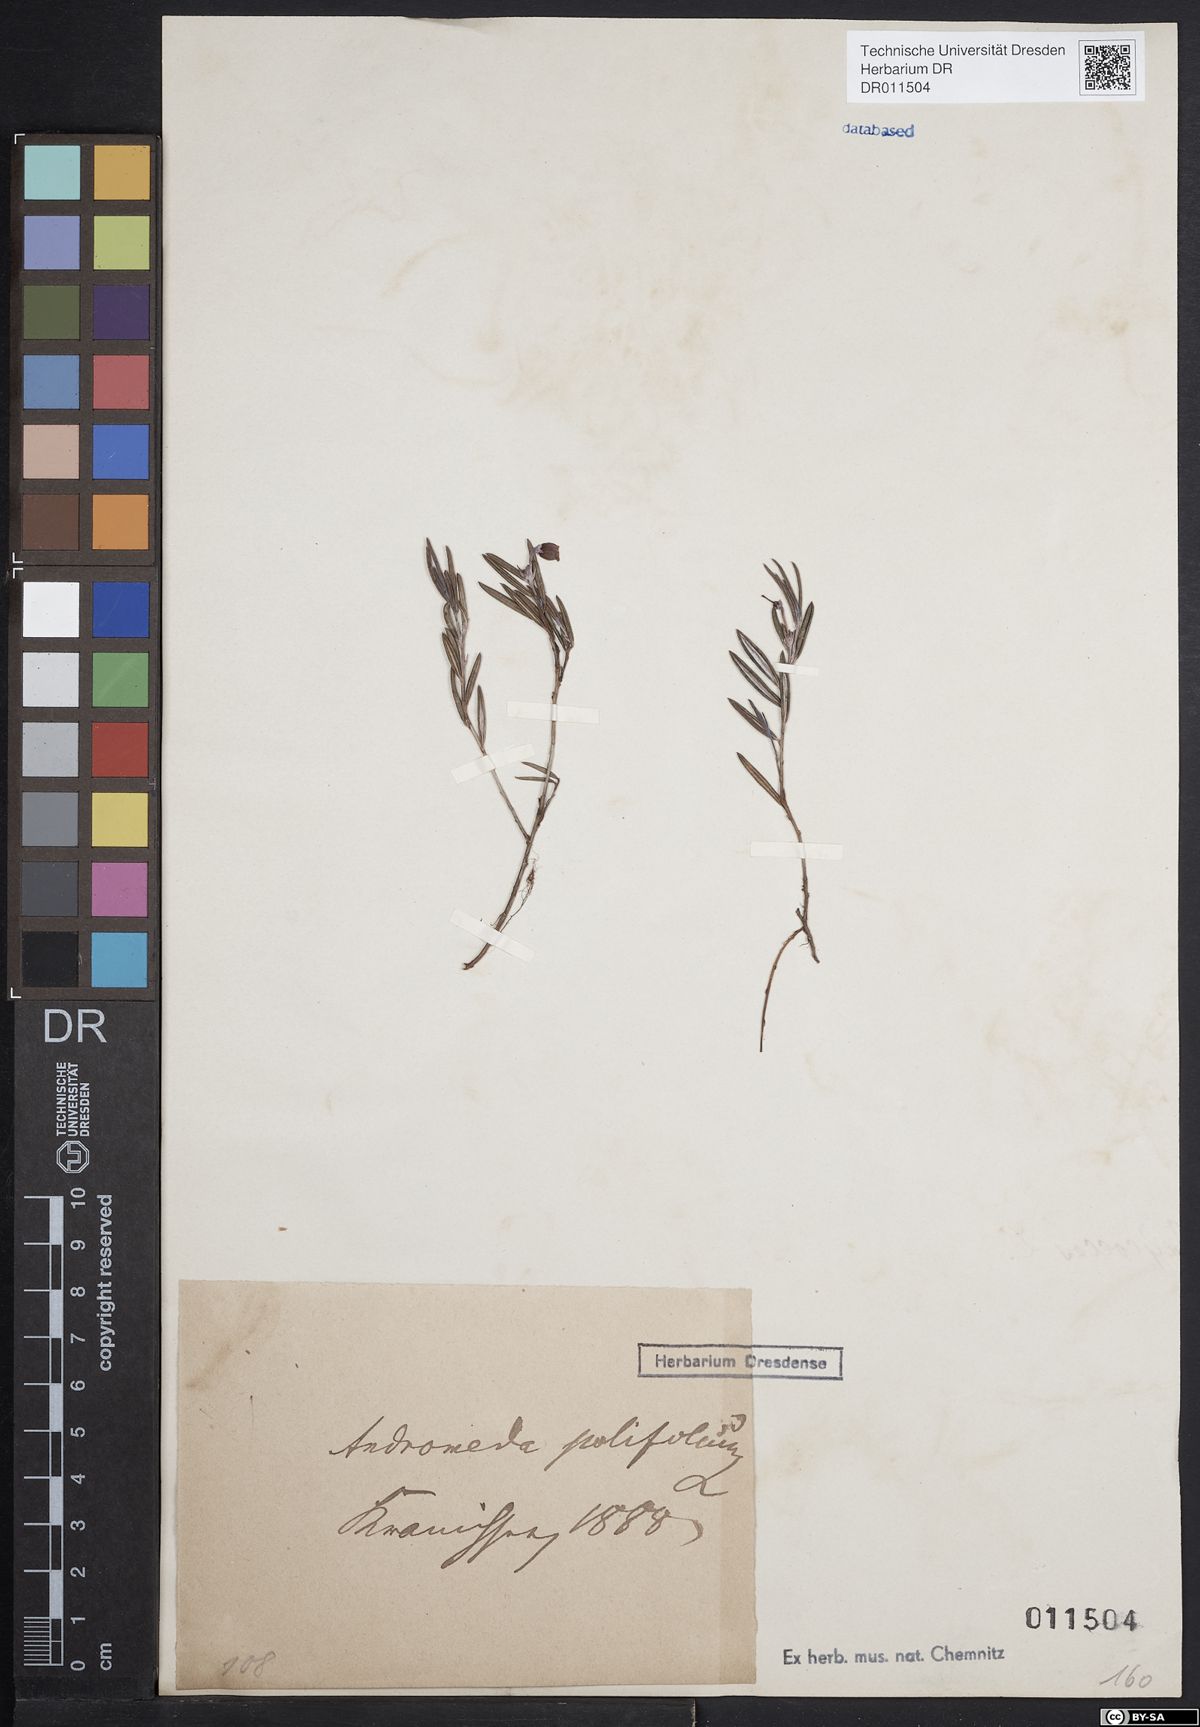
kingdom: Plantae
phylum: Tracheophyta
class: Magnoliopsida
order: Ericales
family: Ericaceae
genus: Andromeda
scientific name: Andromeda polifolia
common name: Bog-rosemary
